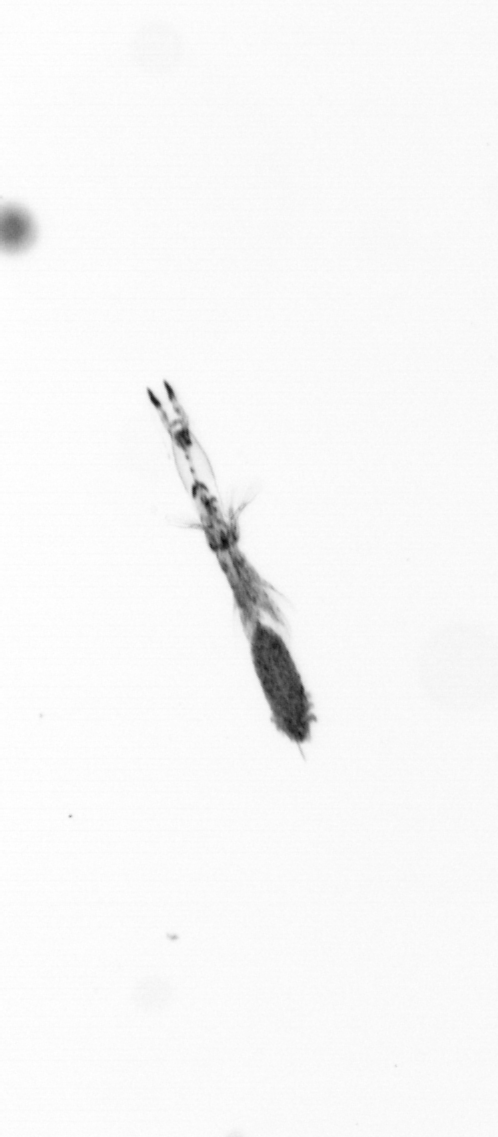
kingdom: Animalia
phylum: Arthropoda
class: Copepoda
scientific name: Copepoda
